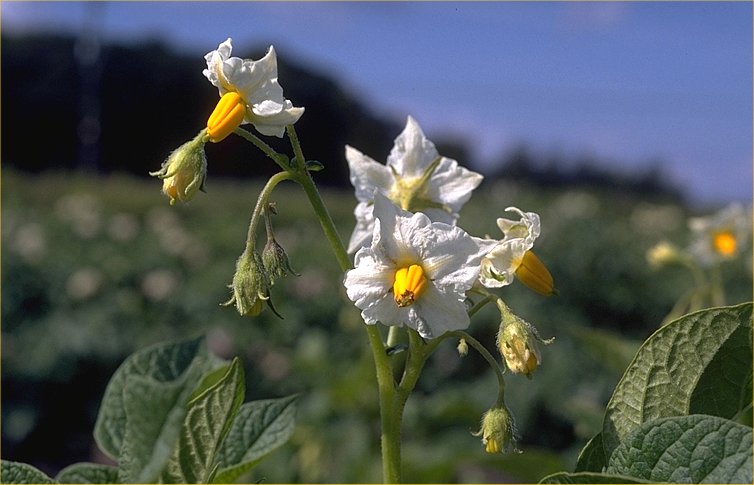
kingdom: Plantae
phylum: Tracheophyta
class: Magnoliopsida
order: Solanales
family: Solanaceae
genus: Solanum
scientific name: Solanum tuberosum
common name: Potato
